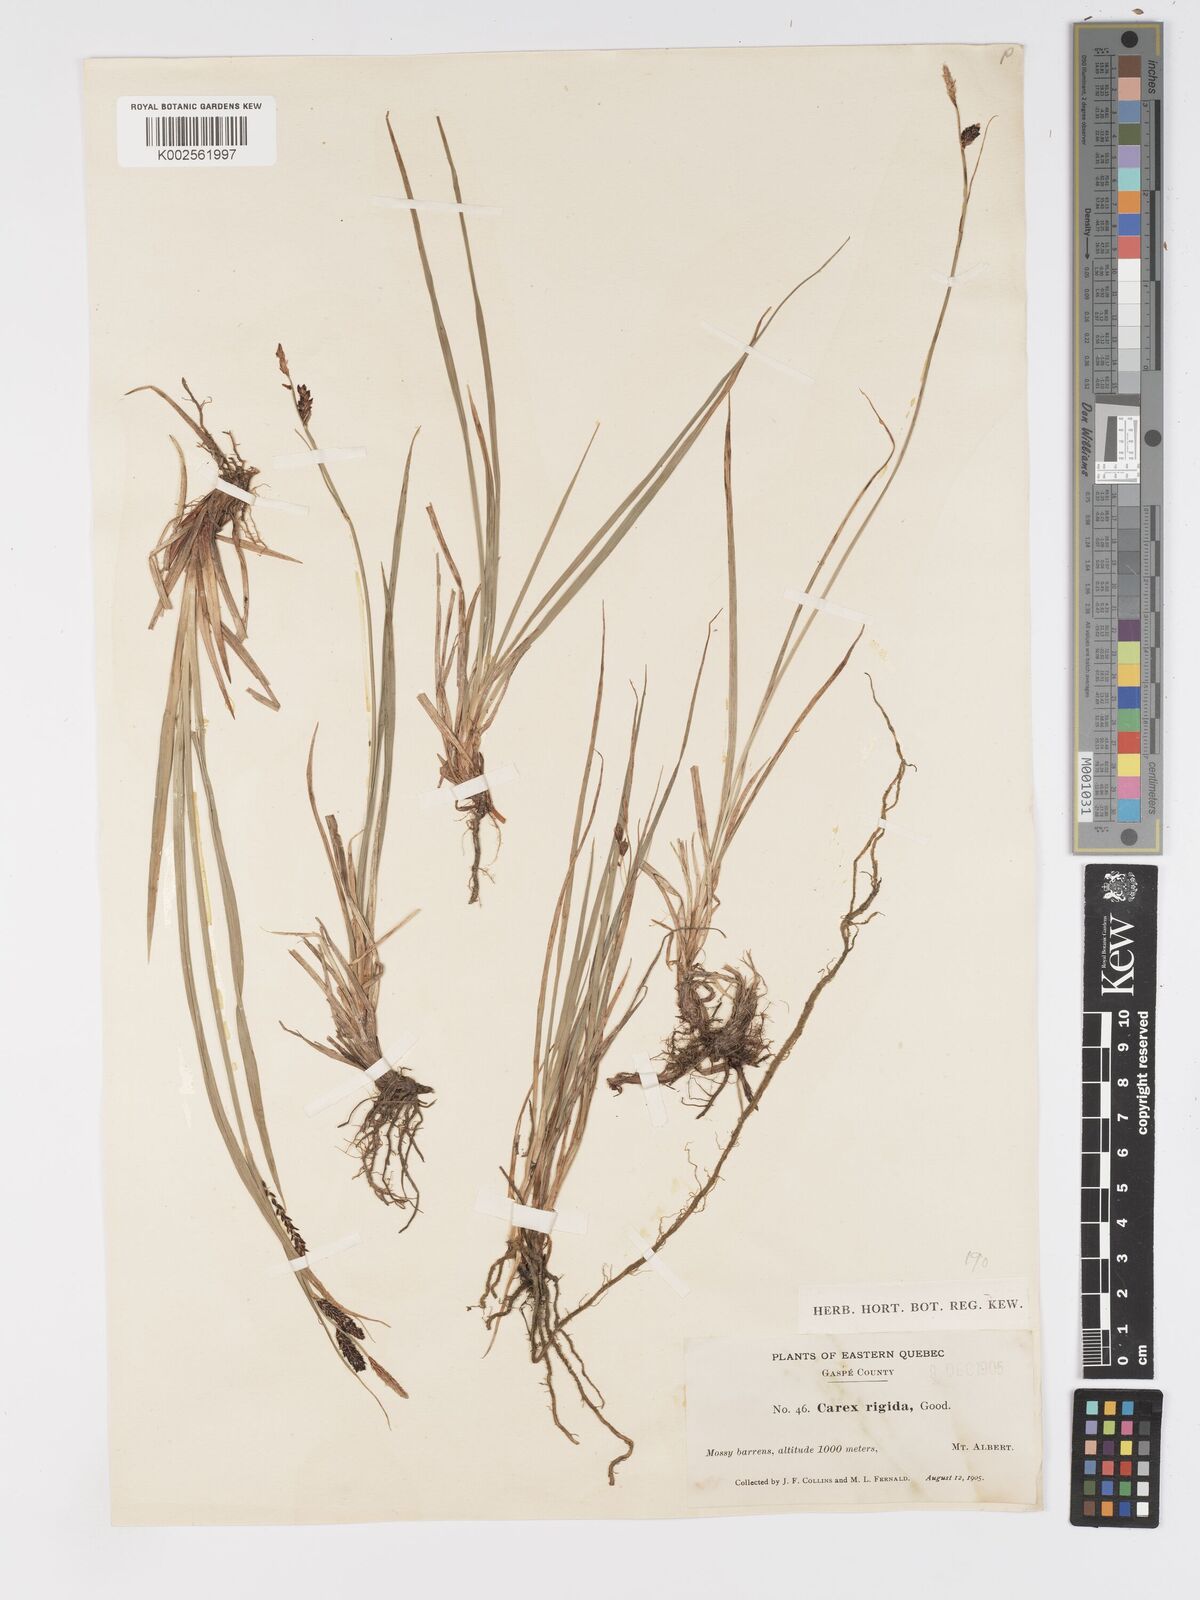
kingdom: Plantae
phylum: Tracheophyta
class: Liliopsida
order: Poales
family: Cyperaceae
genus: Carex
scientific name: Carex bigelowii
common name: Stiff sedge
